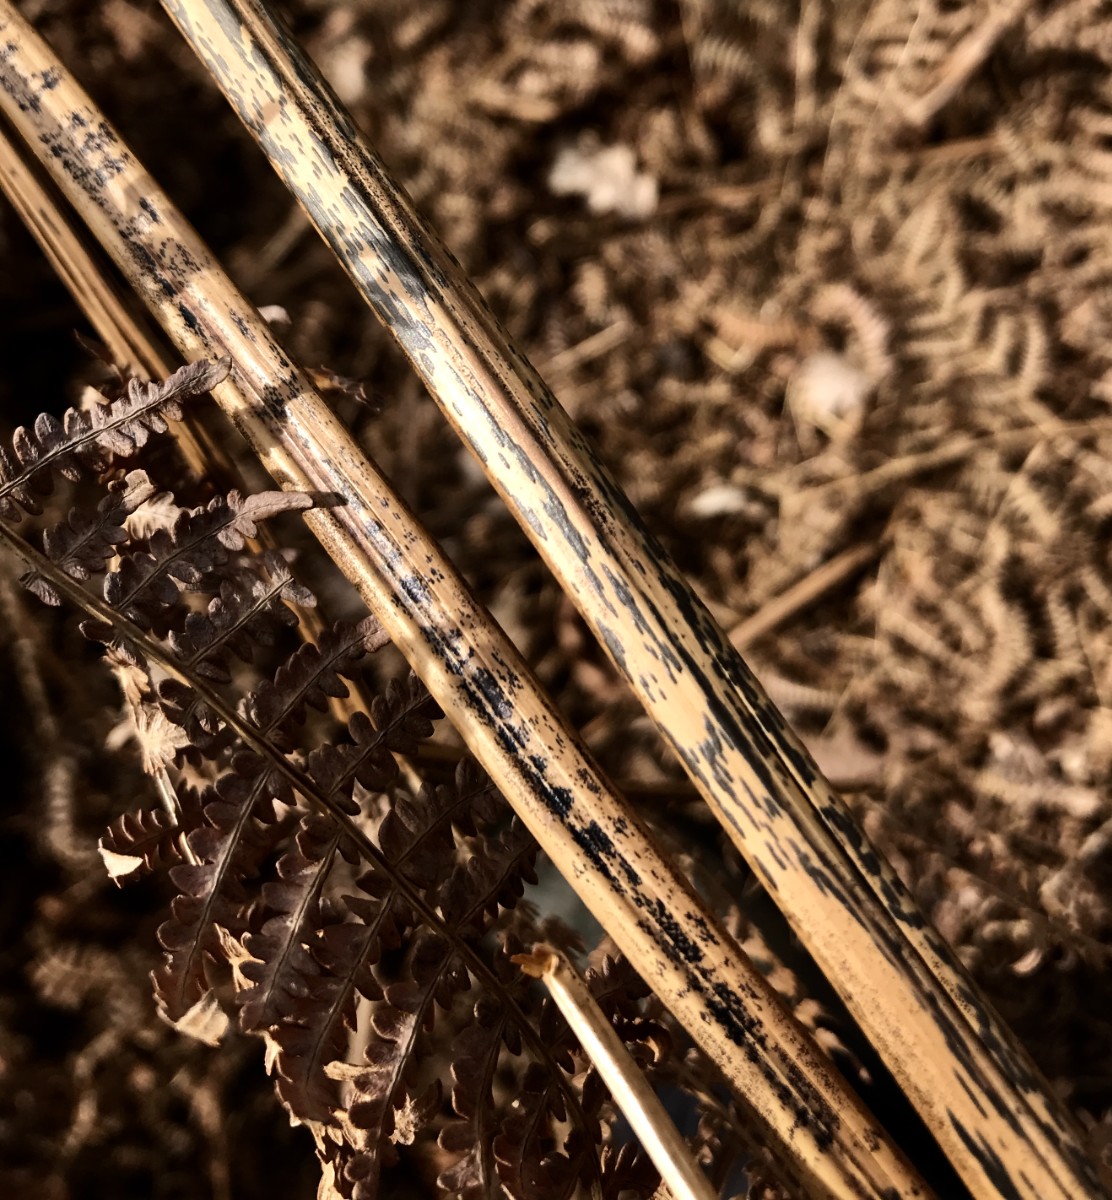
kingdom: Fungi
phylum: Ascomycota
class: Dothideomycetes
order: Pleosporales
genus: Rhopographus
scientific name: Rhopographus filicinus
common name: Bracken map
